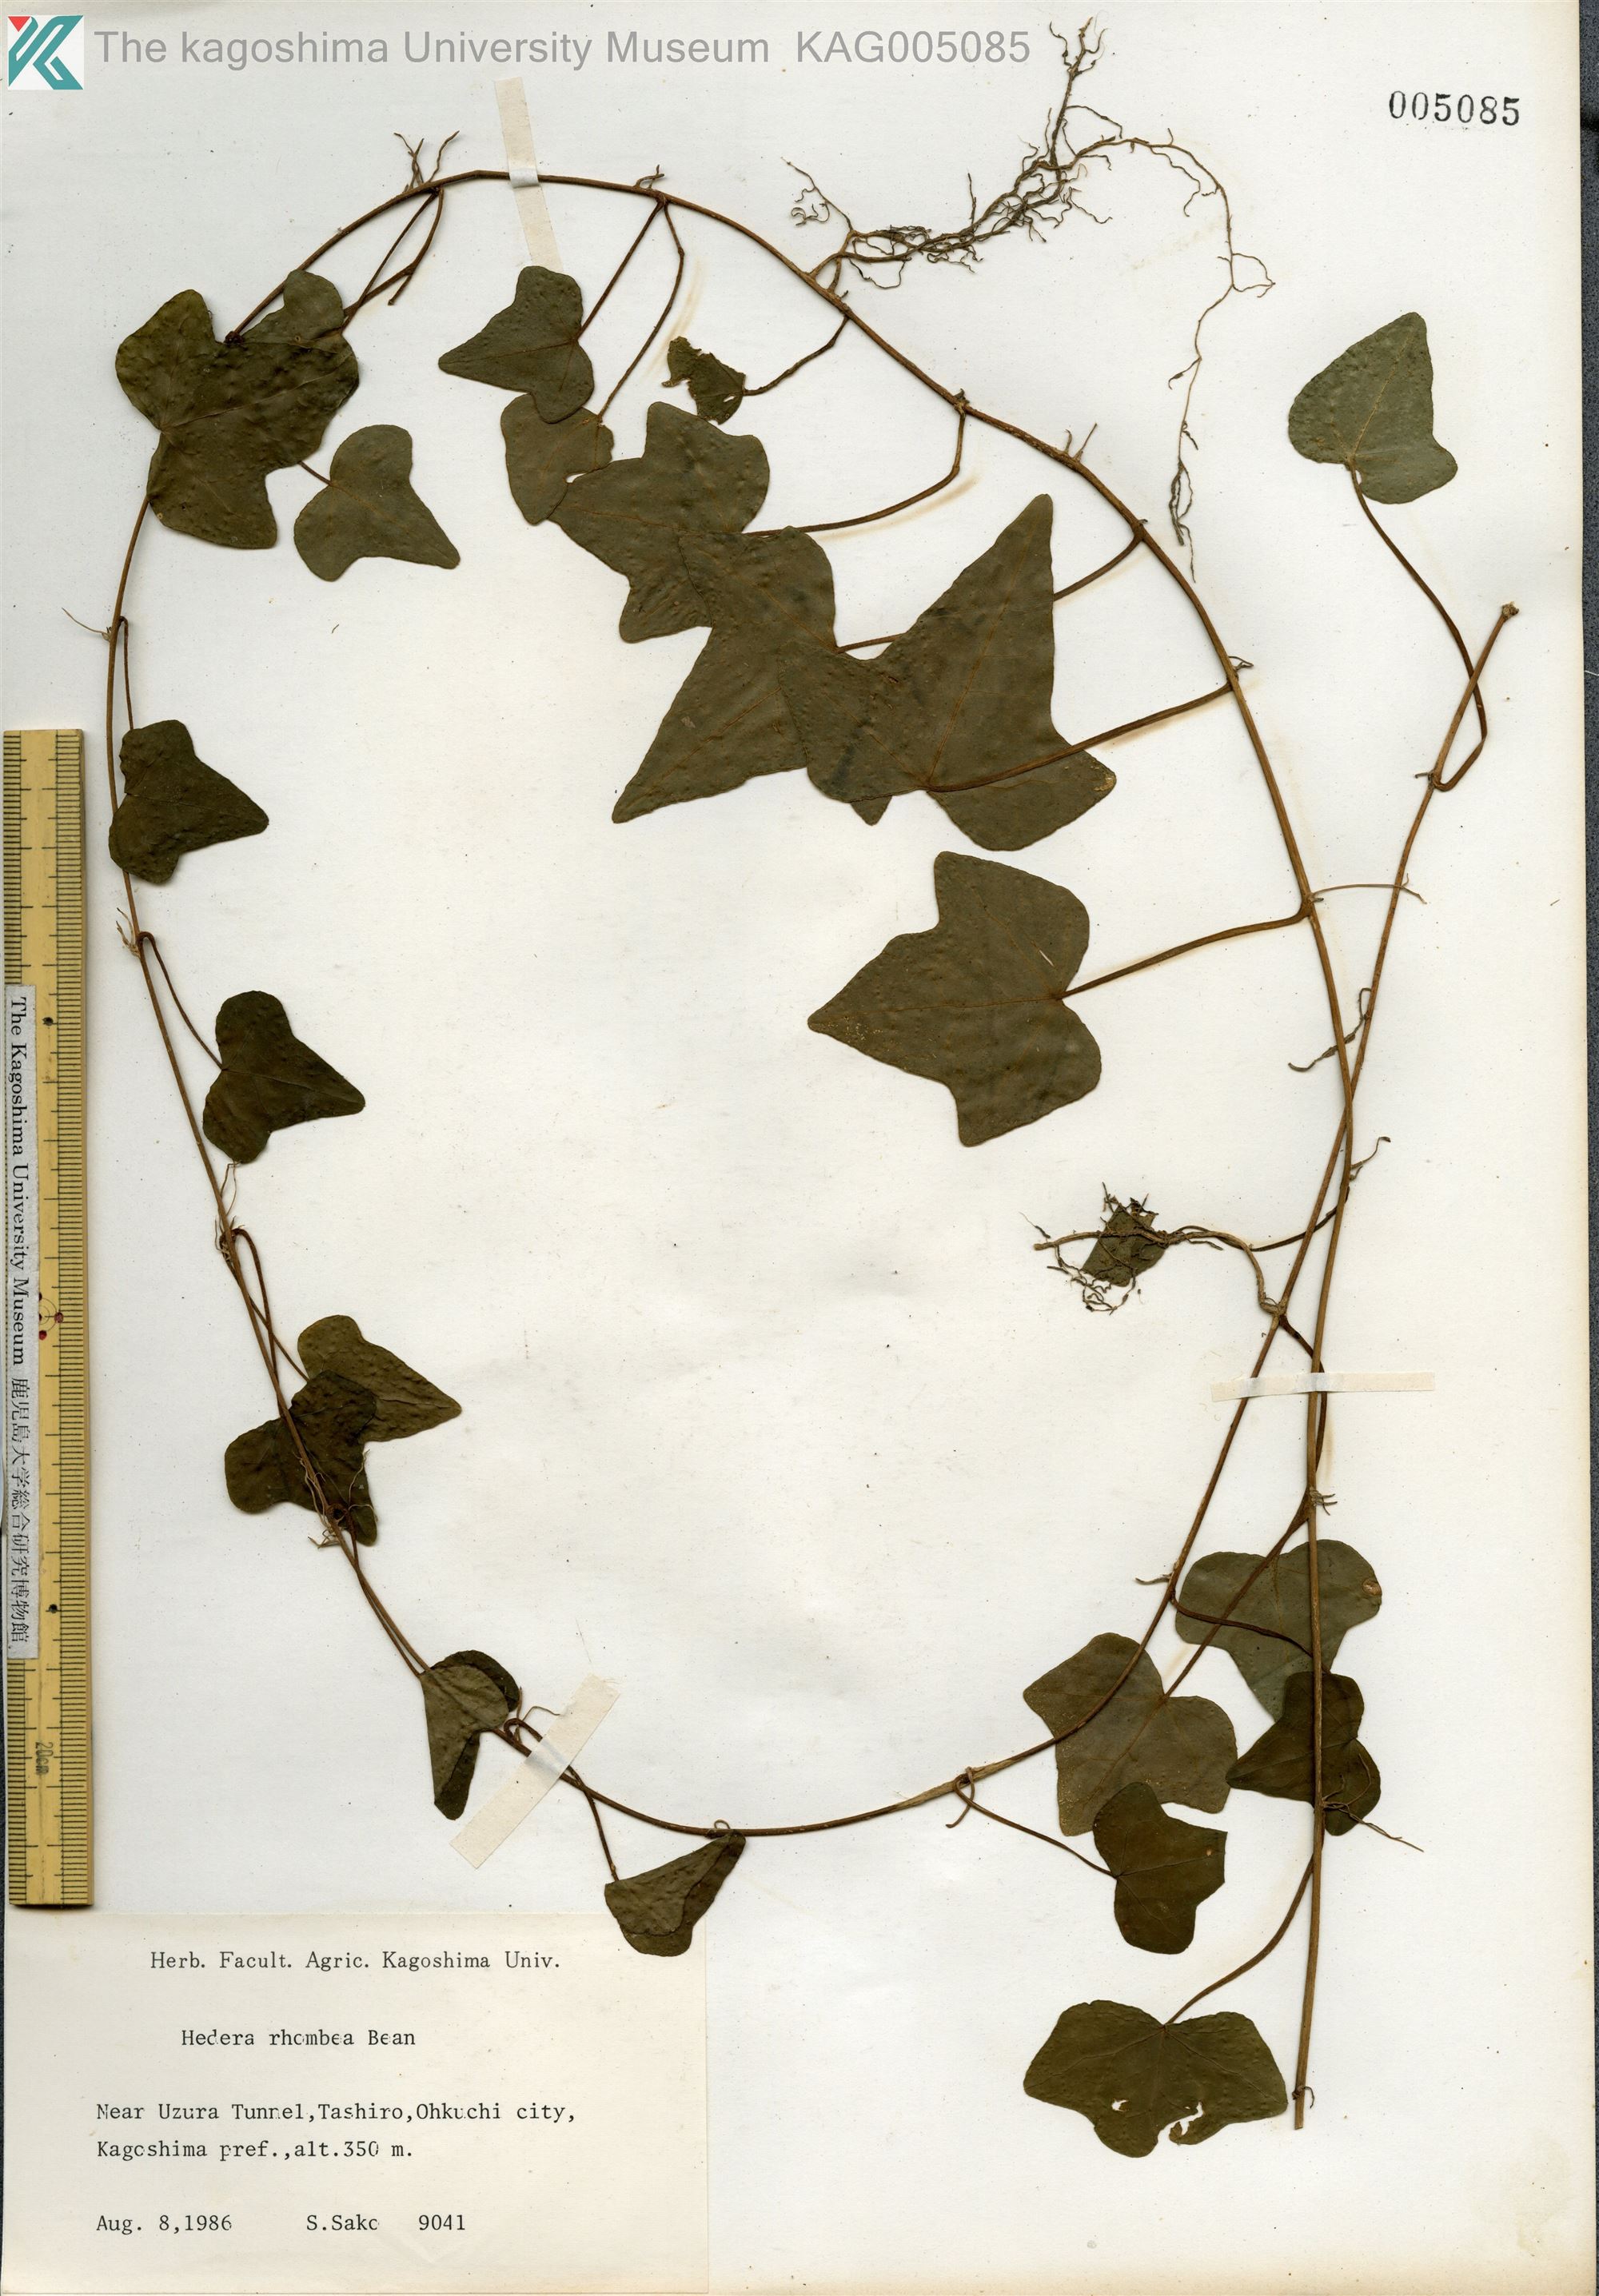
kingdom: Plantae
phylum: Tracheophyta
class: Magnoliopsida
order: Apiales
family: Araliaceae
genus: Hedera
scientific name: Hedera rhombea
